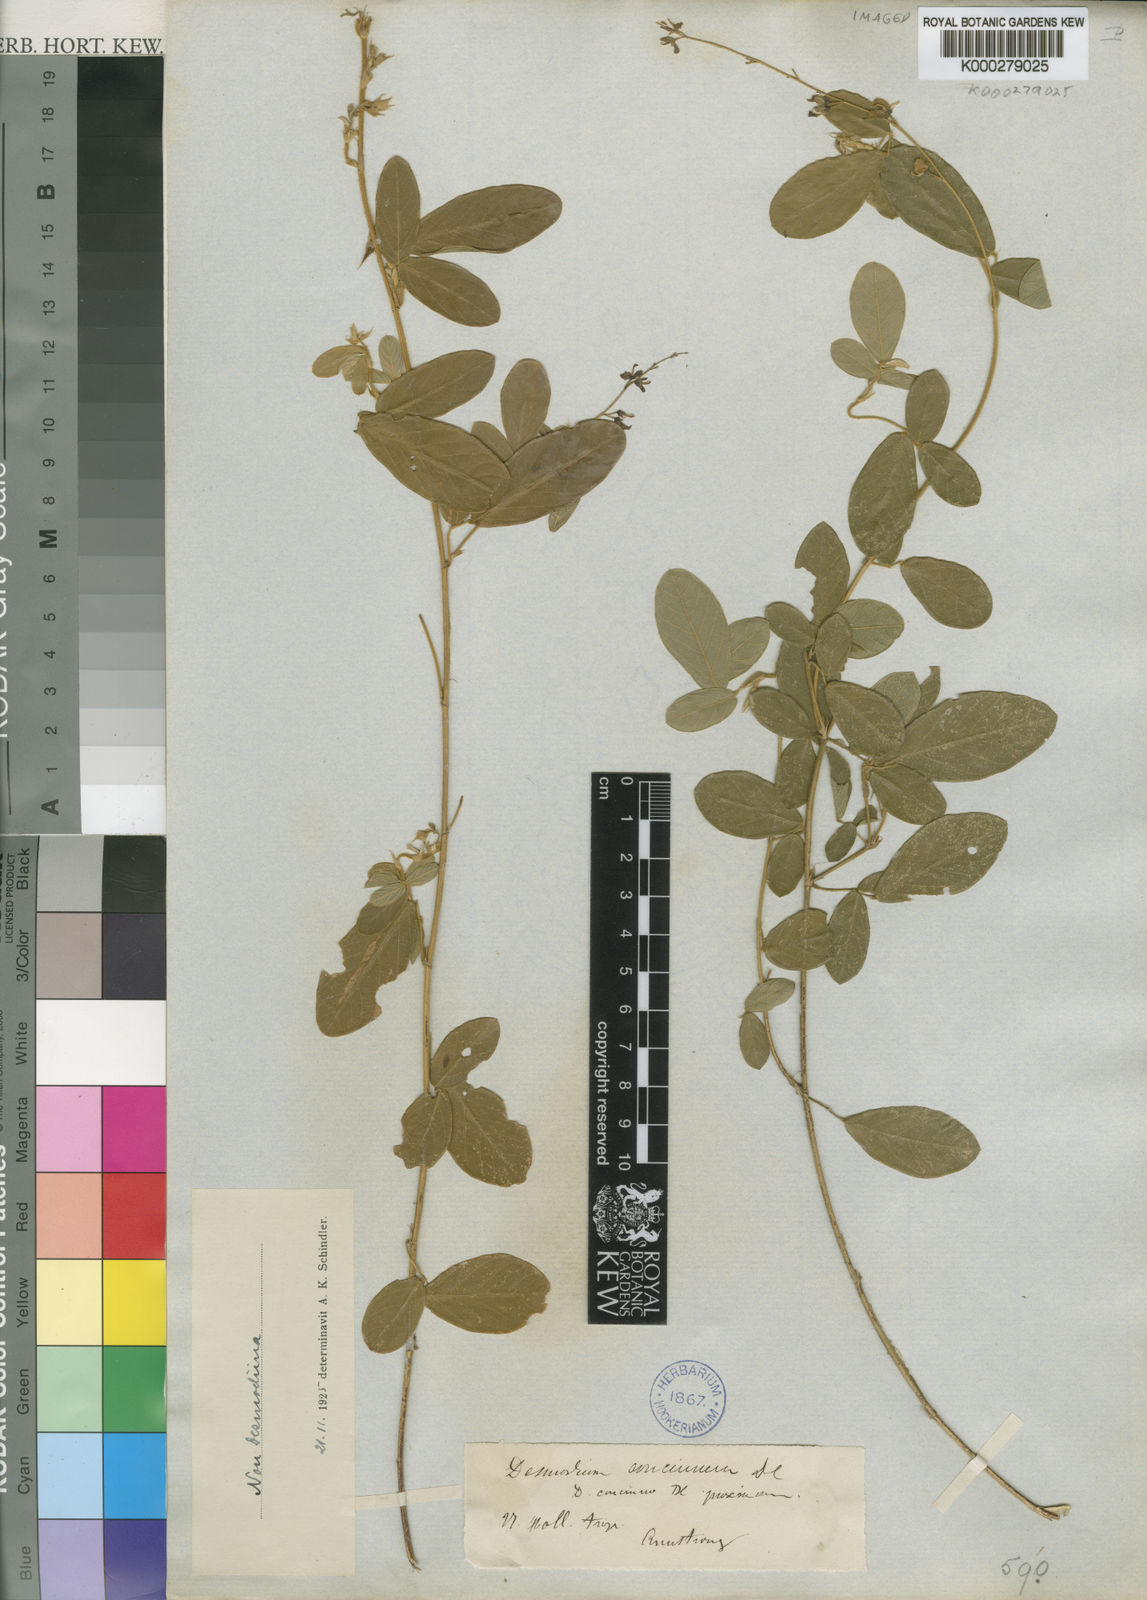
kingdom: Plantae
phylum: Tracheophyta
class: Magnoliopsida
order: Fabales
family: Fabaceae
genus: Desmodium
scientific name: Desmodium
